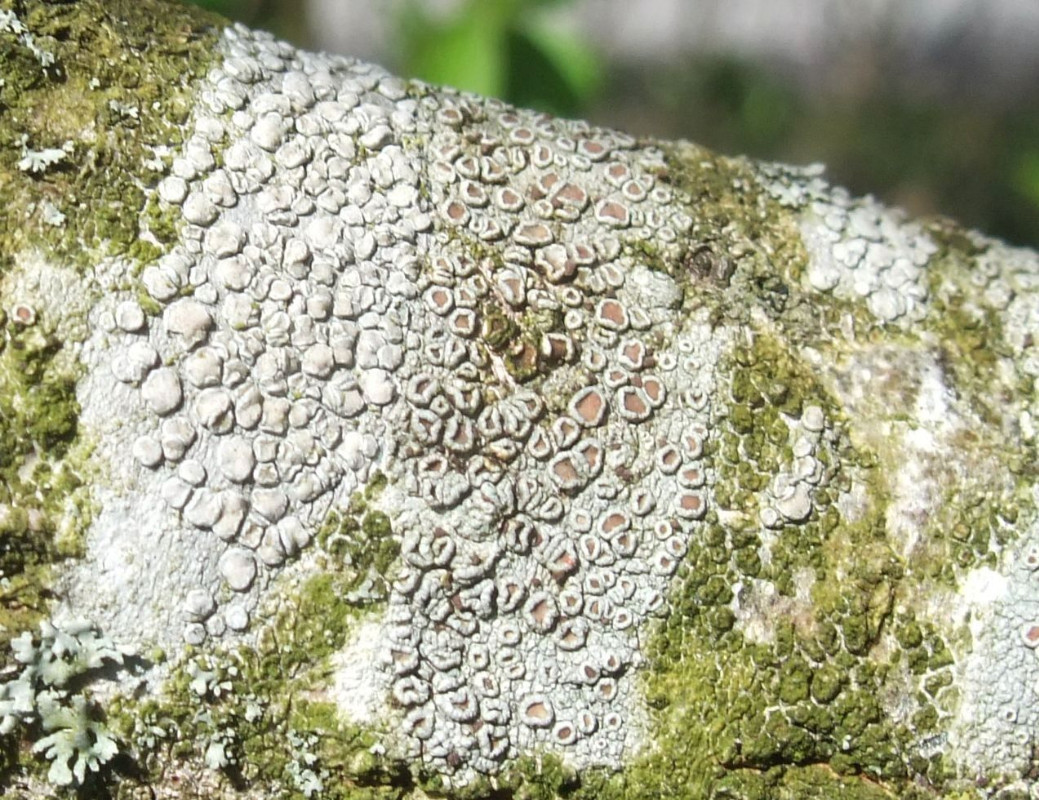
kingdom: Fungi
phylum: Ascomycota
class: Lecanoromycetes
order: Lecanorales
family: Lecanoraceae
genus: Glaucomaria
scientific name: Glaucomaria carpinea
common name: hviddugget kantskivelav
